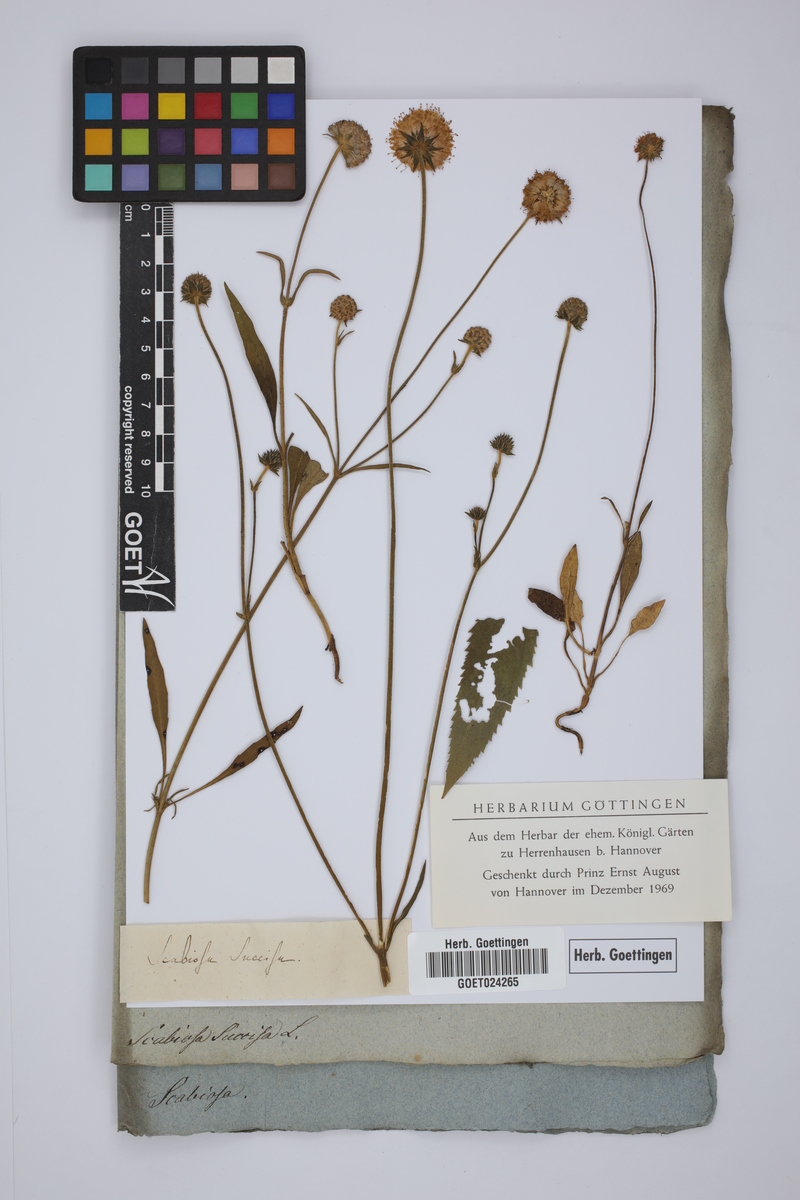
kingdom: Plantae
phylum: Tracheophyta
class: Magnoliopsida
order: Dipsacales
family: Caprifoliaceae
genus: Succisa
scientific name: Succisa pratensis
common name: Devil's-bit
